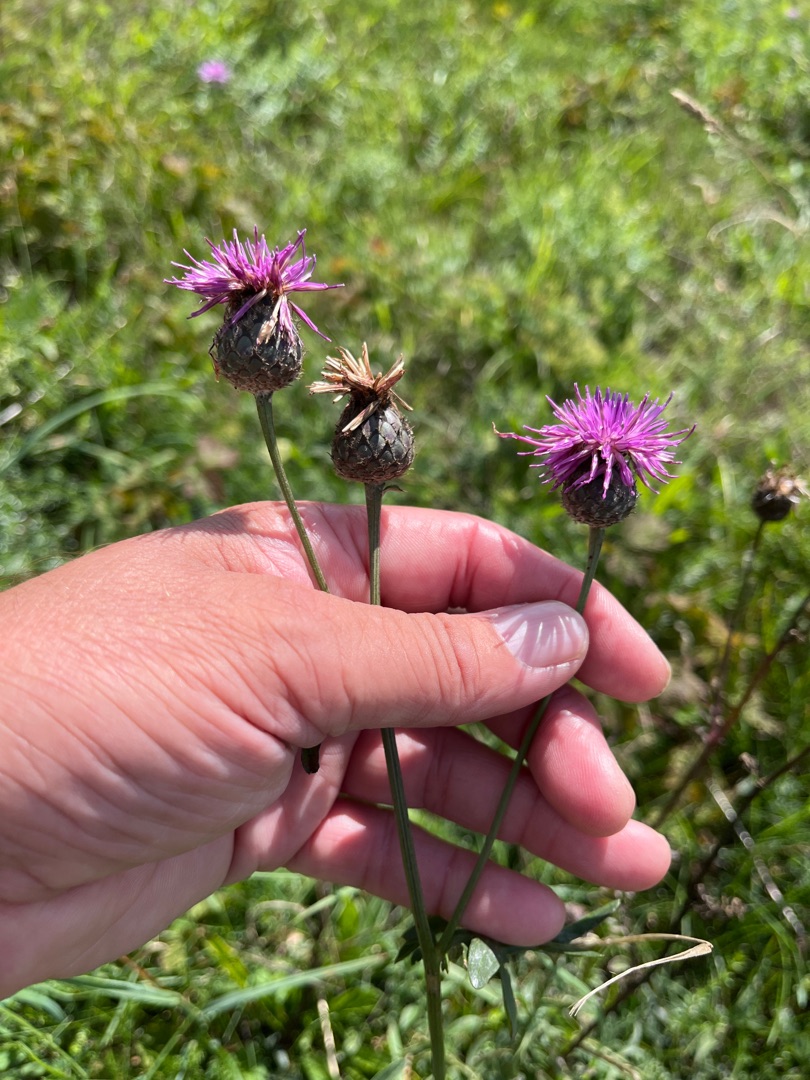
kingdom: Plantae
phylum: Tracheophyta
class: Magnoliopsida
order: Asterales
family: Asteraceae
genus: Centaurea
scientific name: Centaurea scabiosa
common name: Stor knopurt
